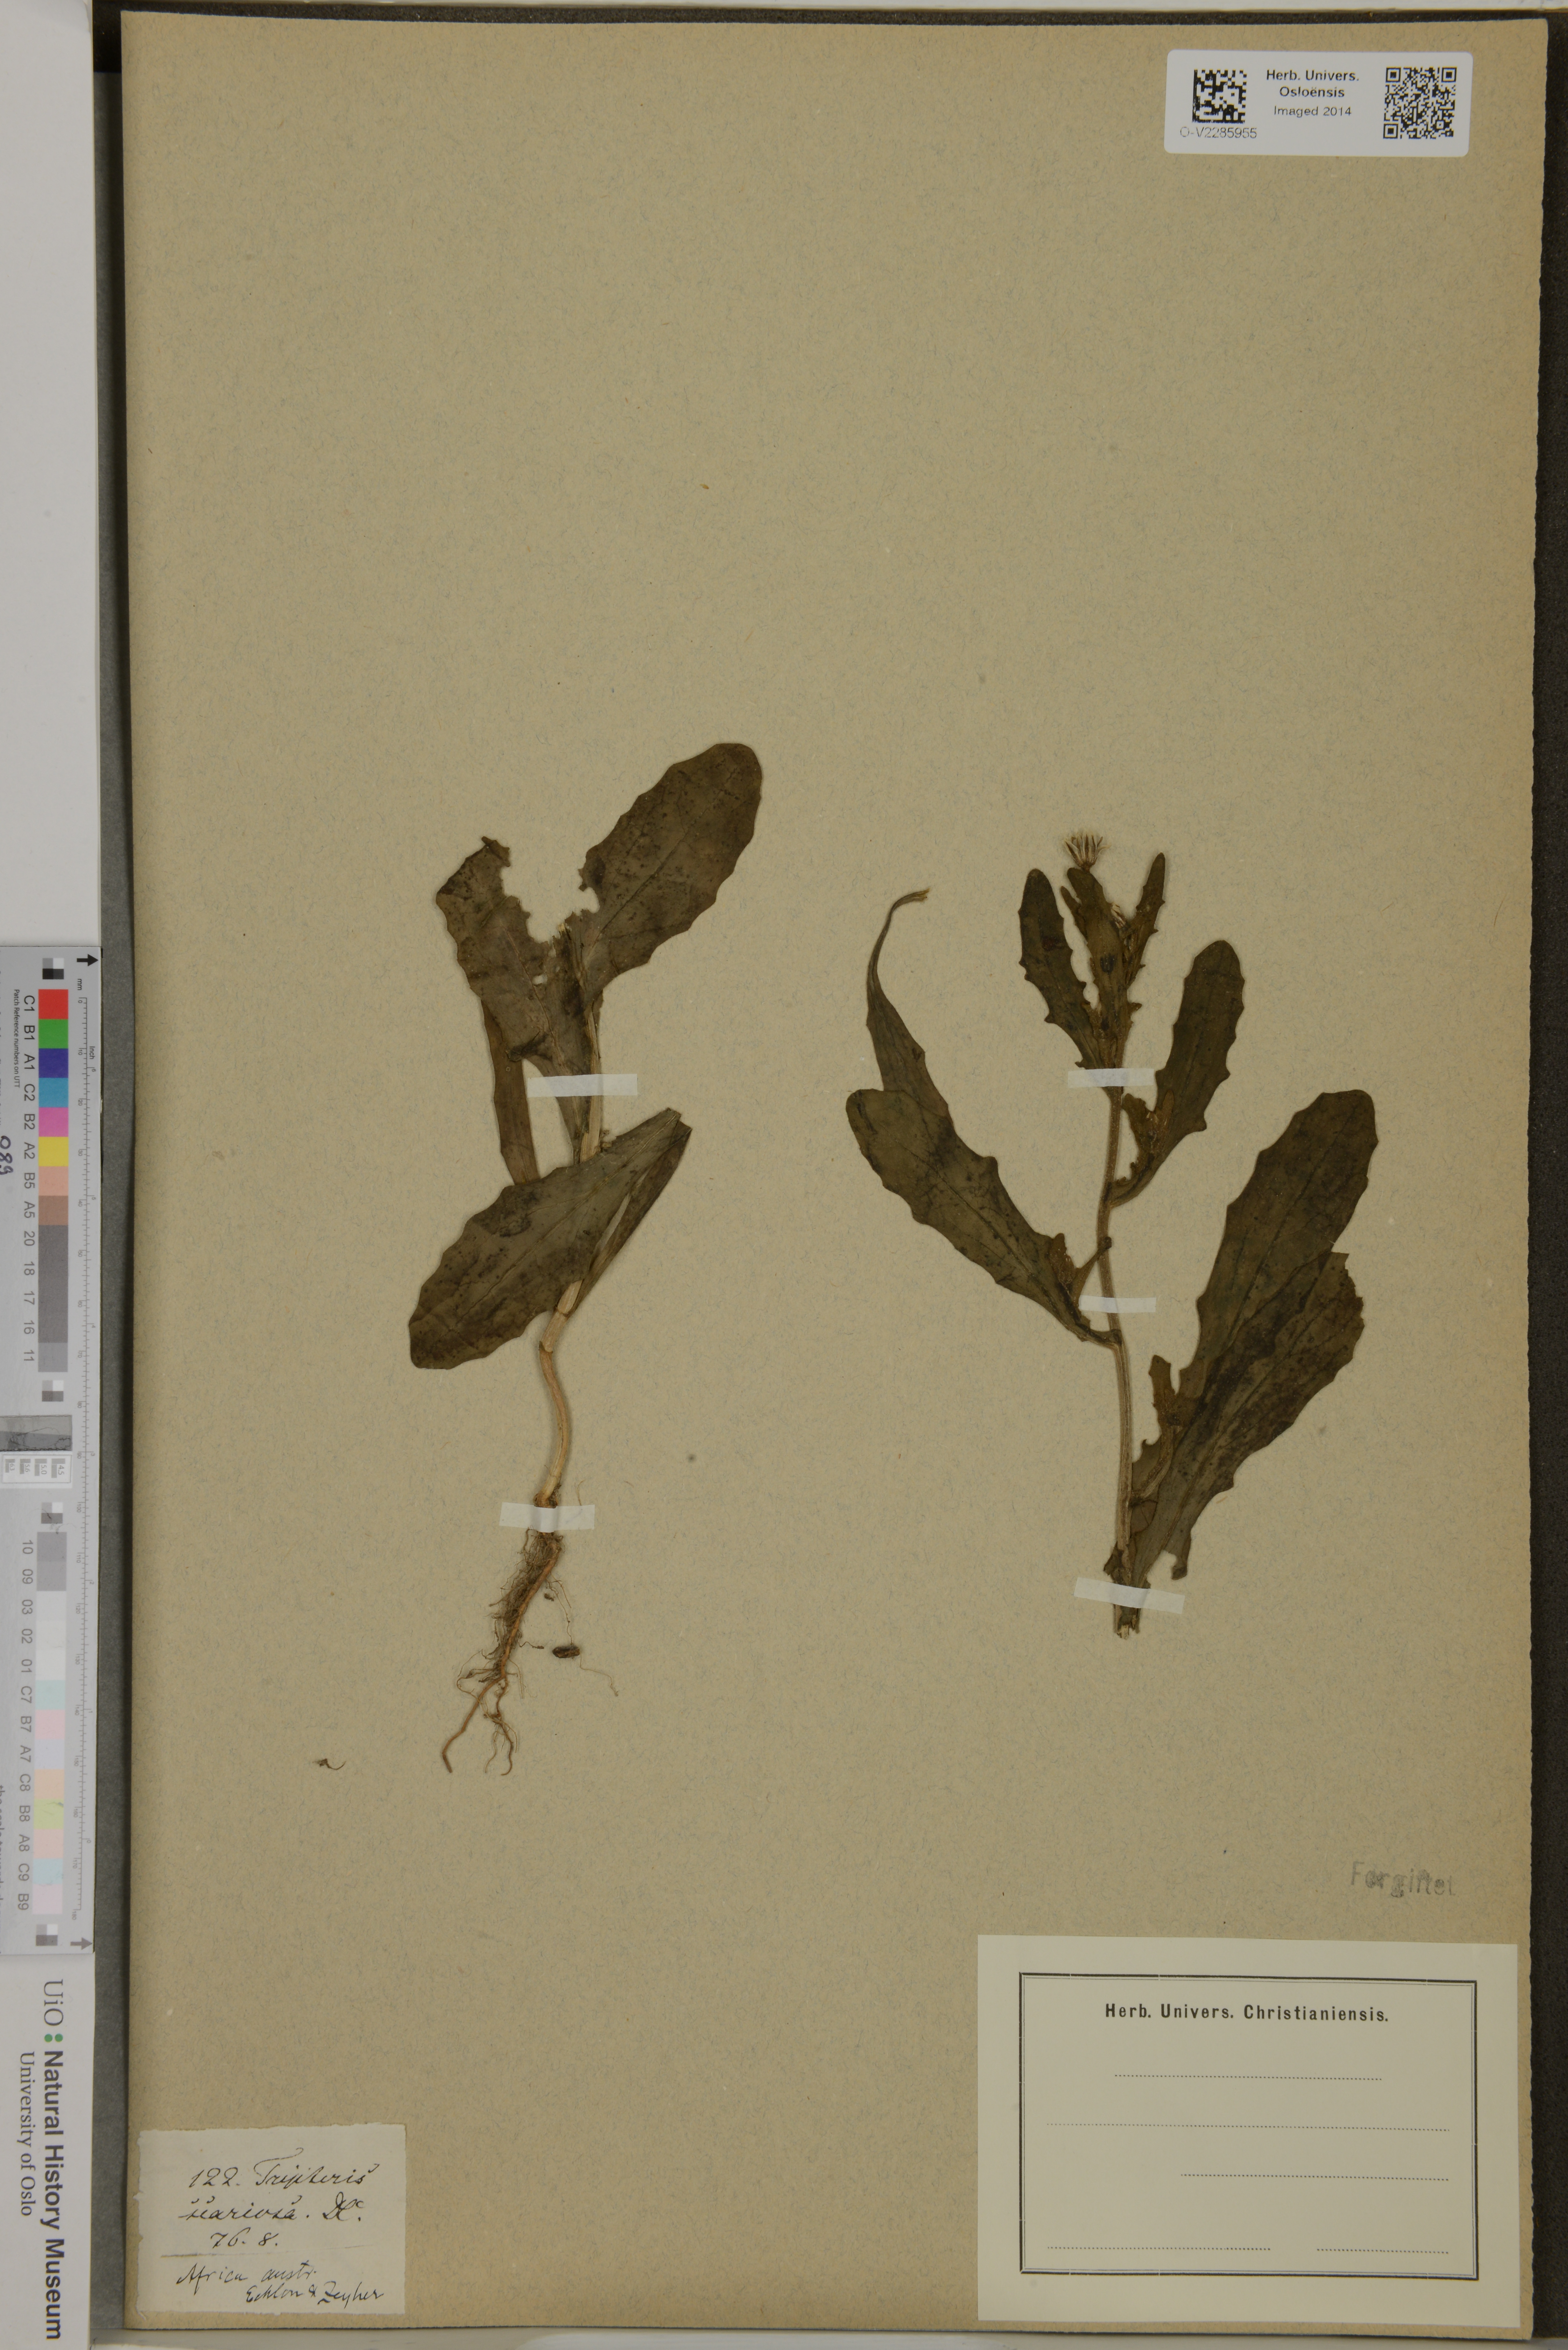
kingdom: Plantae
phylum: Tracheophyta
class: Magnoliopsida
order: Asterales
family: Asteraceae
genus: Osteospermum
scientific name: Osteospermum monstrosum
